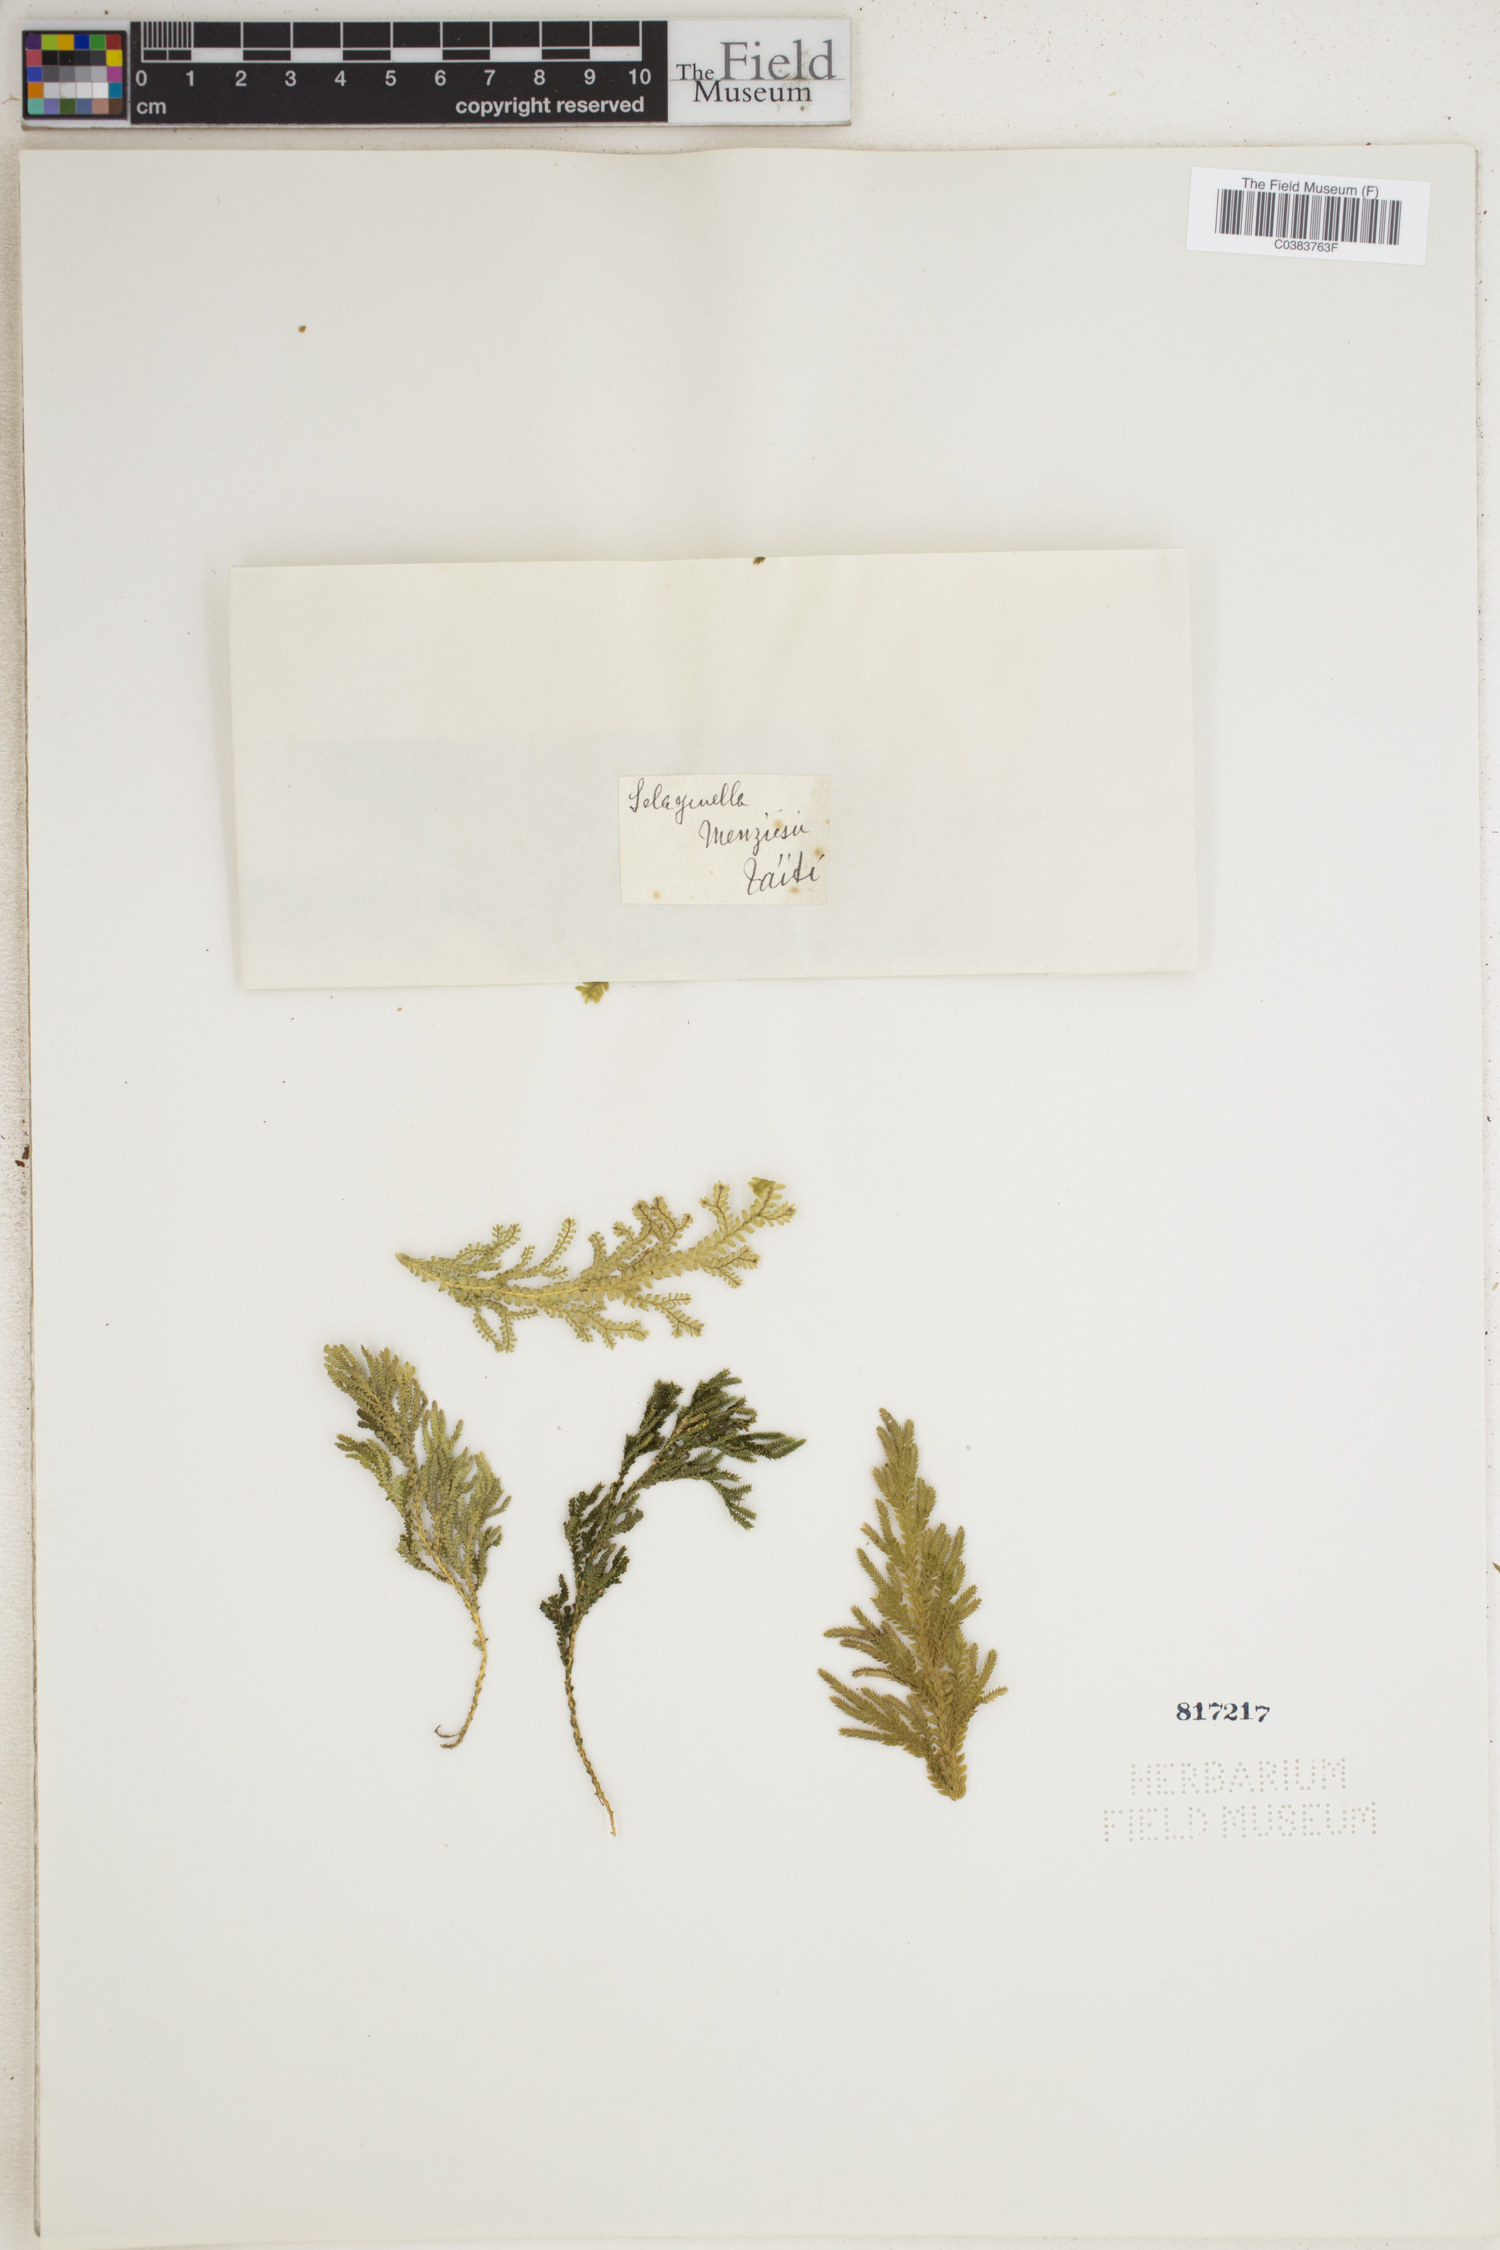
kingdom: Plantae
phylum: Tracheophyta
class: Lycopodiopsida
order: Selaginellales
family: Selaginellaceae
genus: Selaginella
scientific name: Selaginella menziesii
